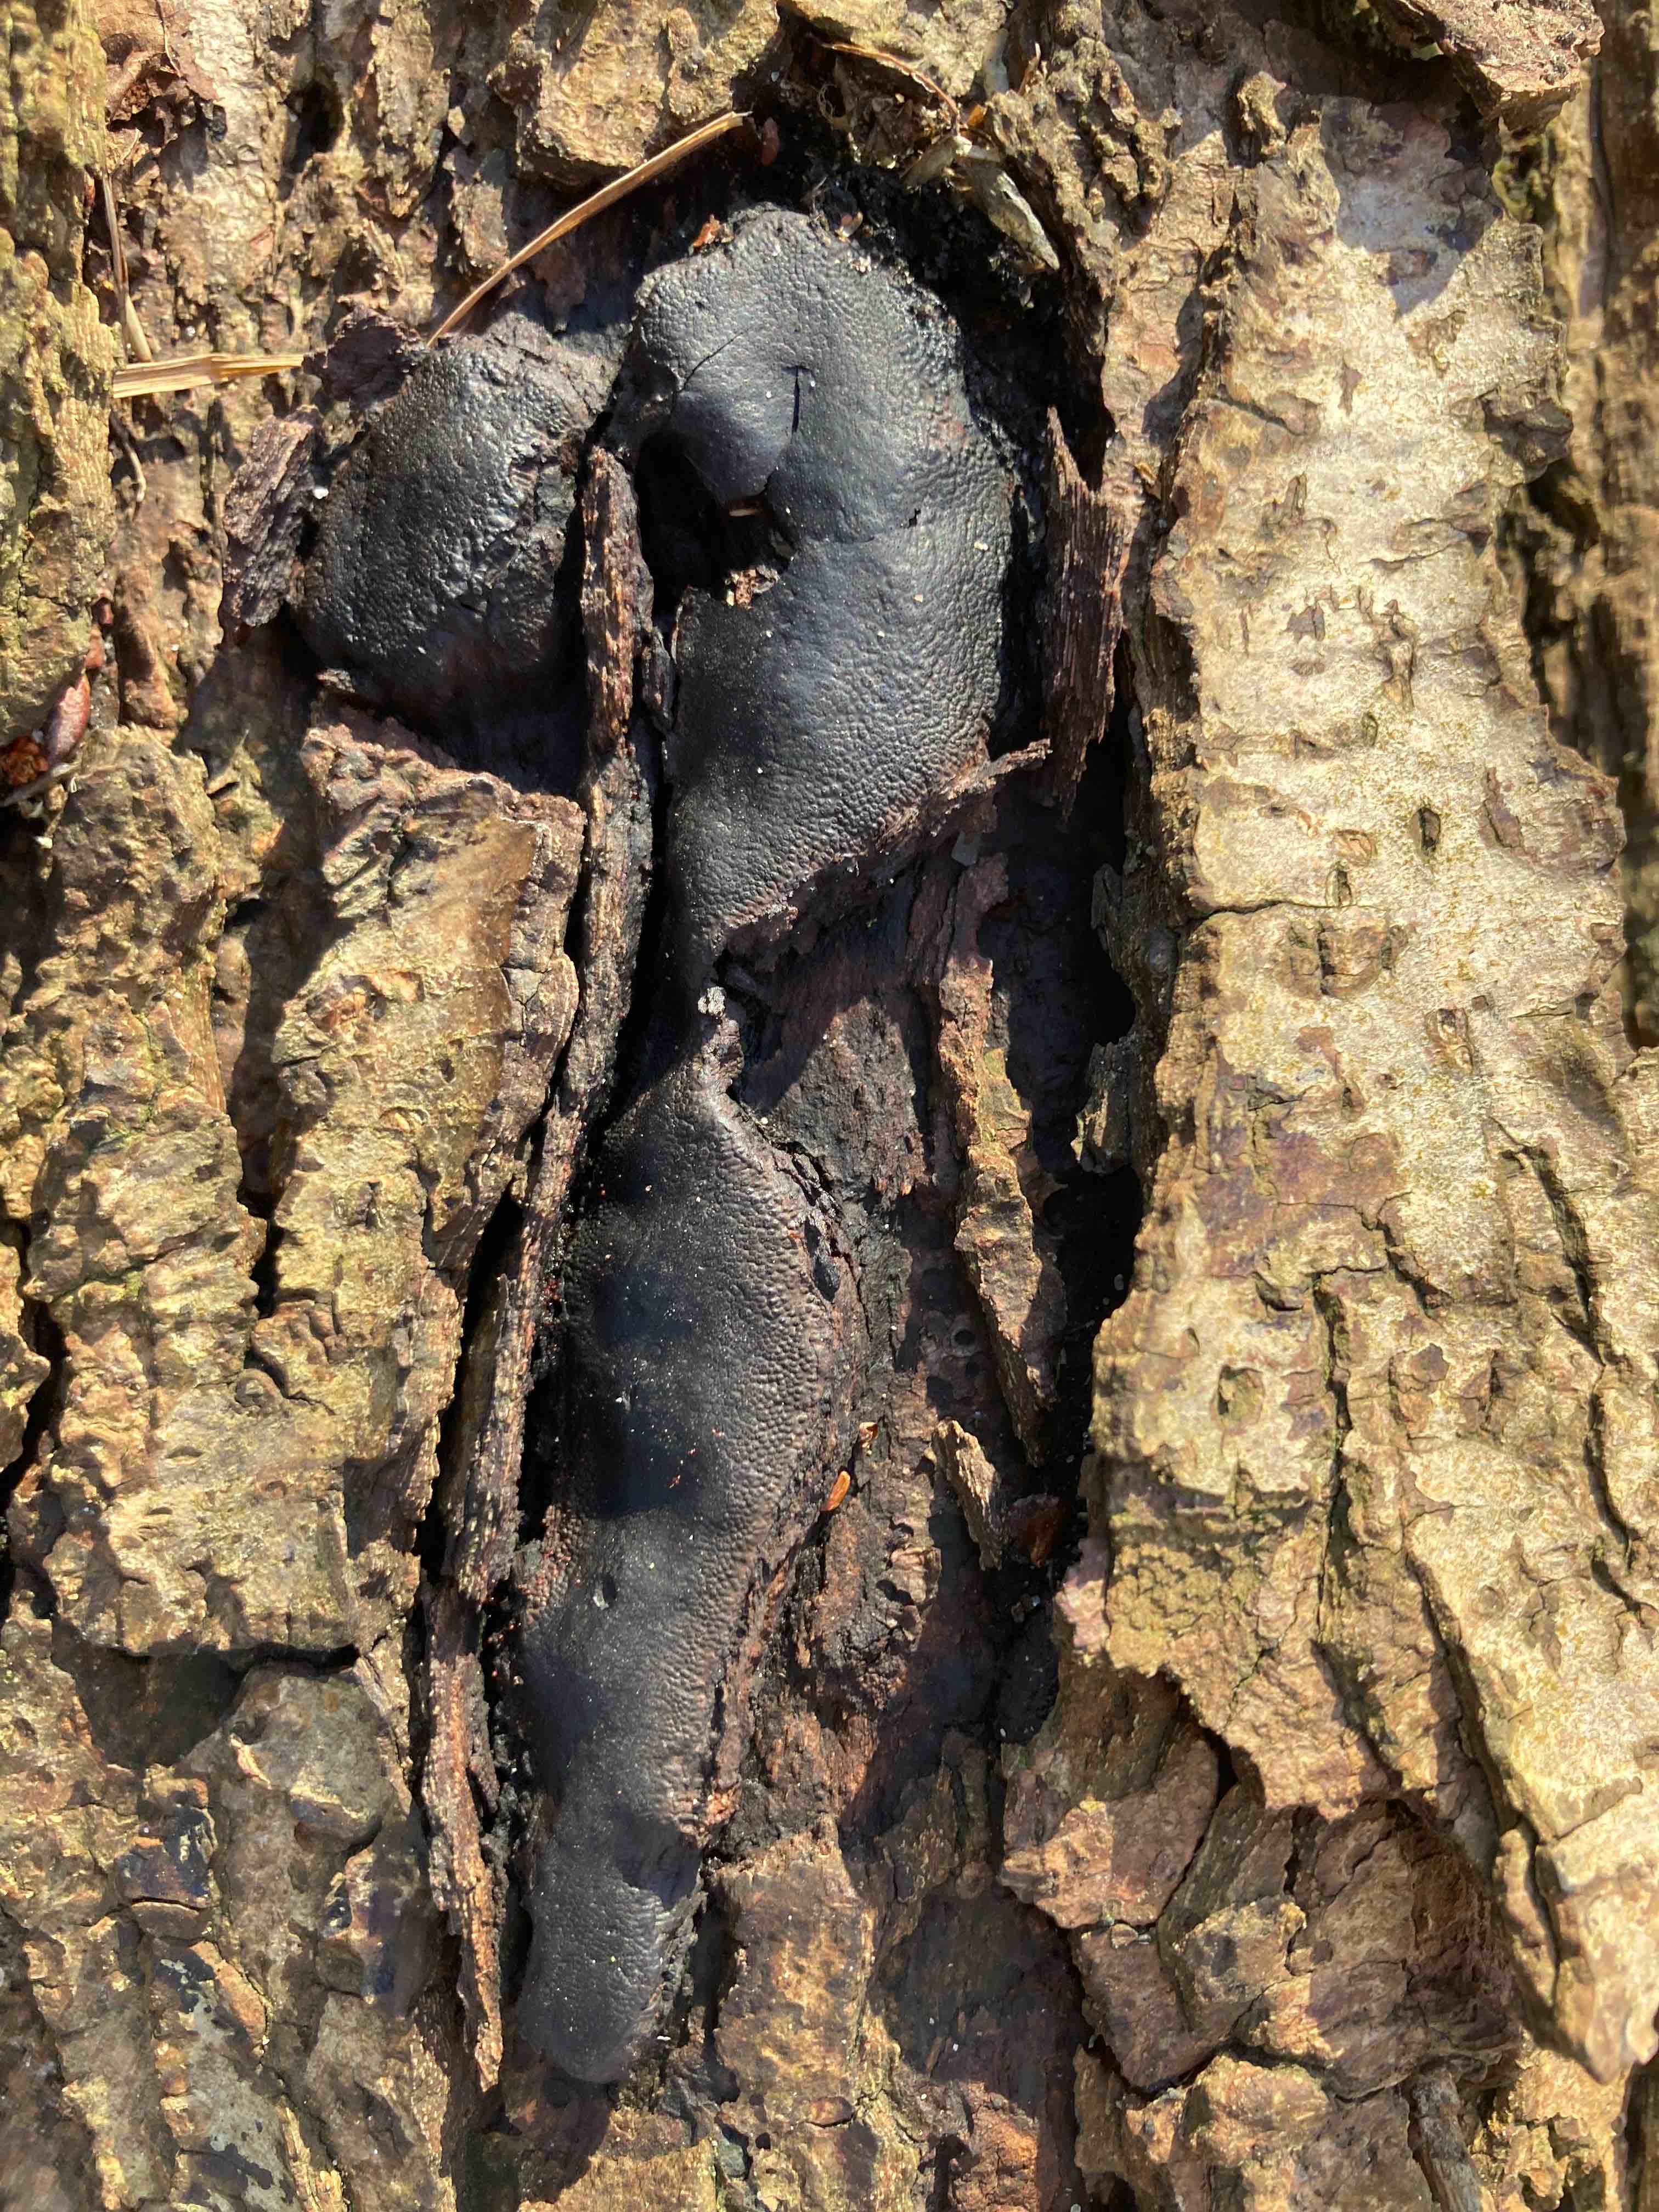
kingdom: Fungi
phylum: Ascomycota
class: Sordariomycetes
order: Boliniales
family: Boliniaceae
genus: Camarops
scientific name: Camarops polysperma
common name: elle-kulsnegl
